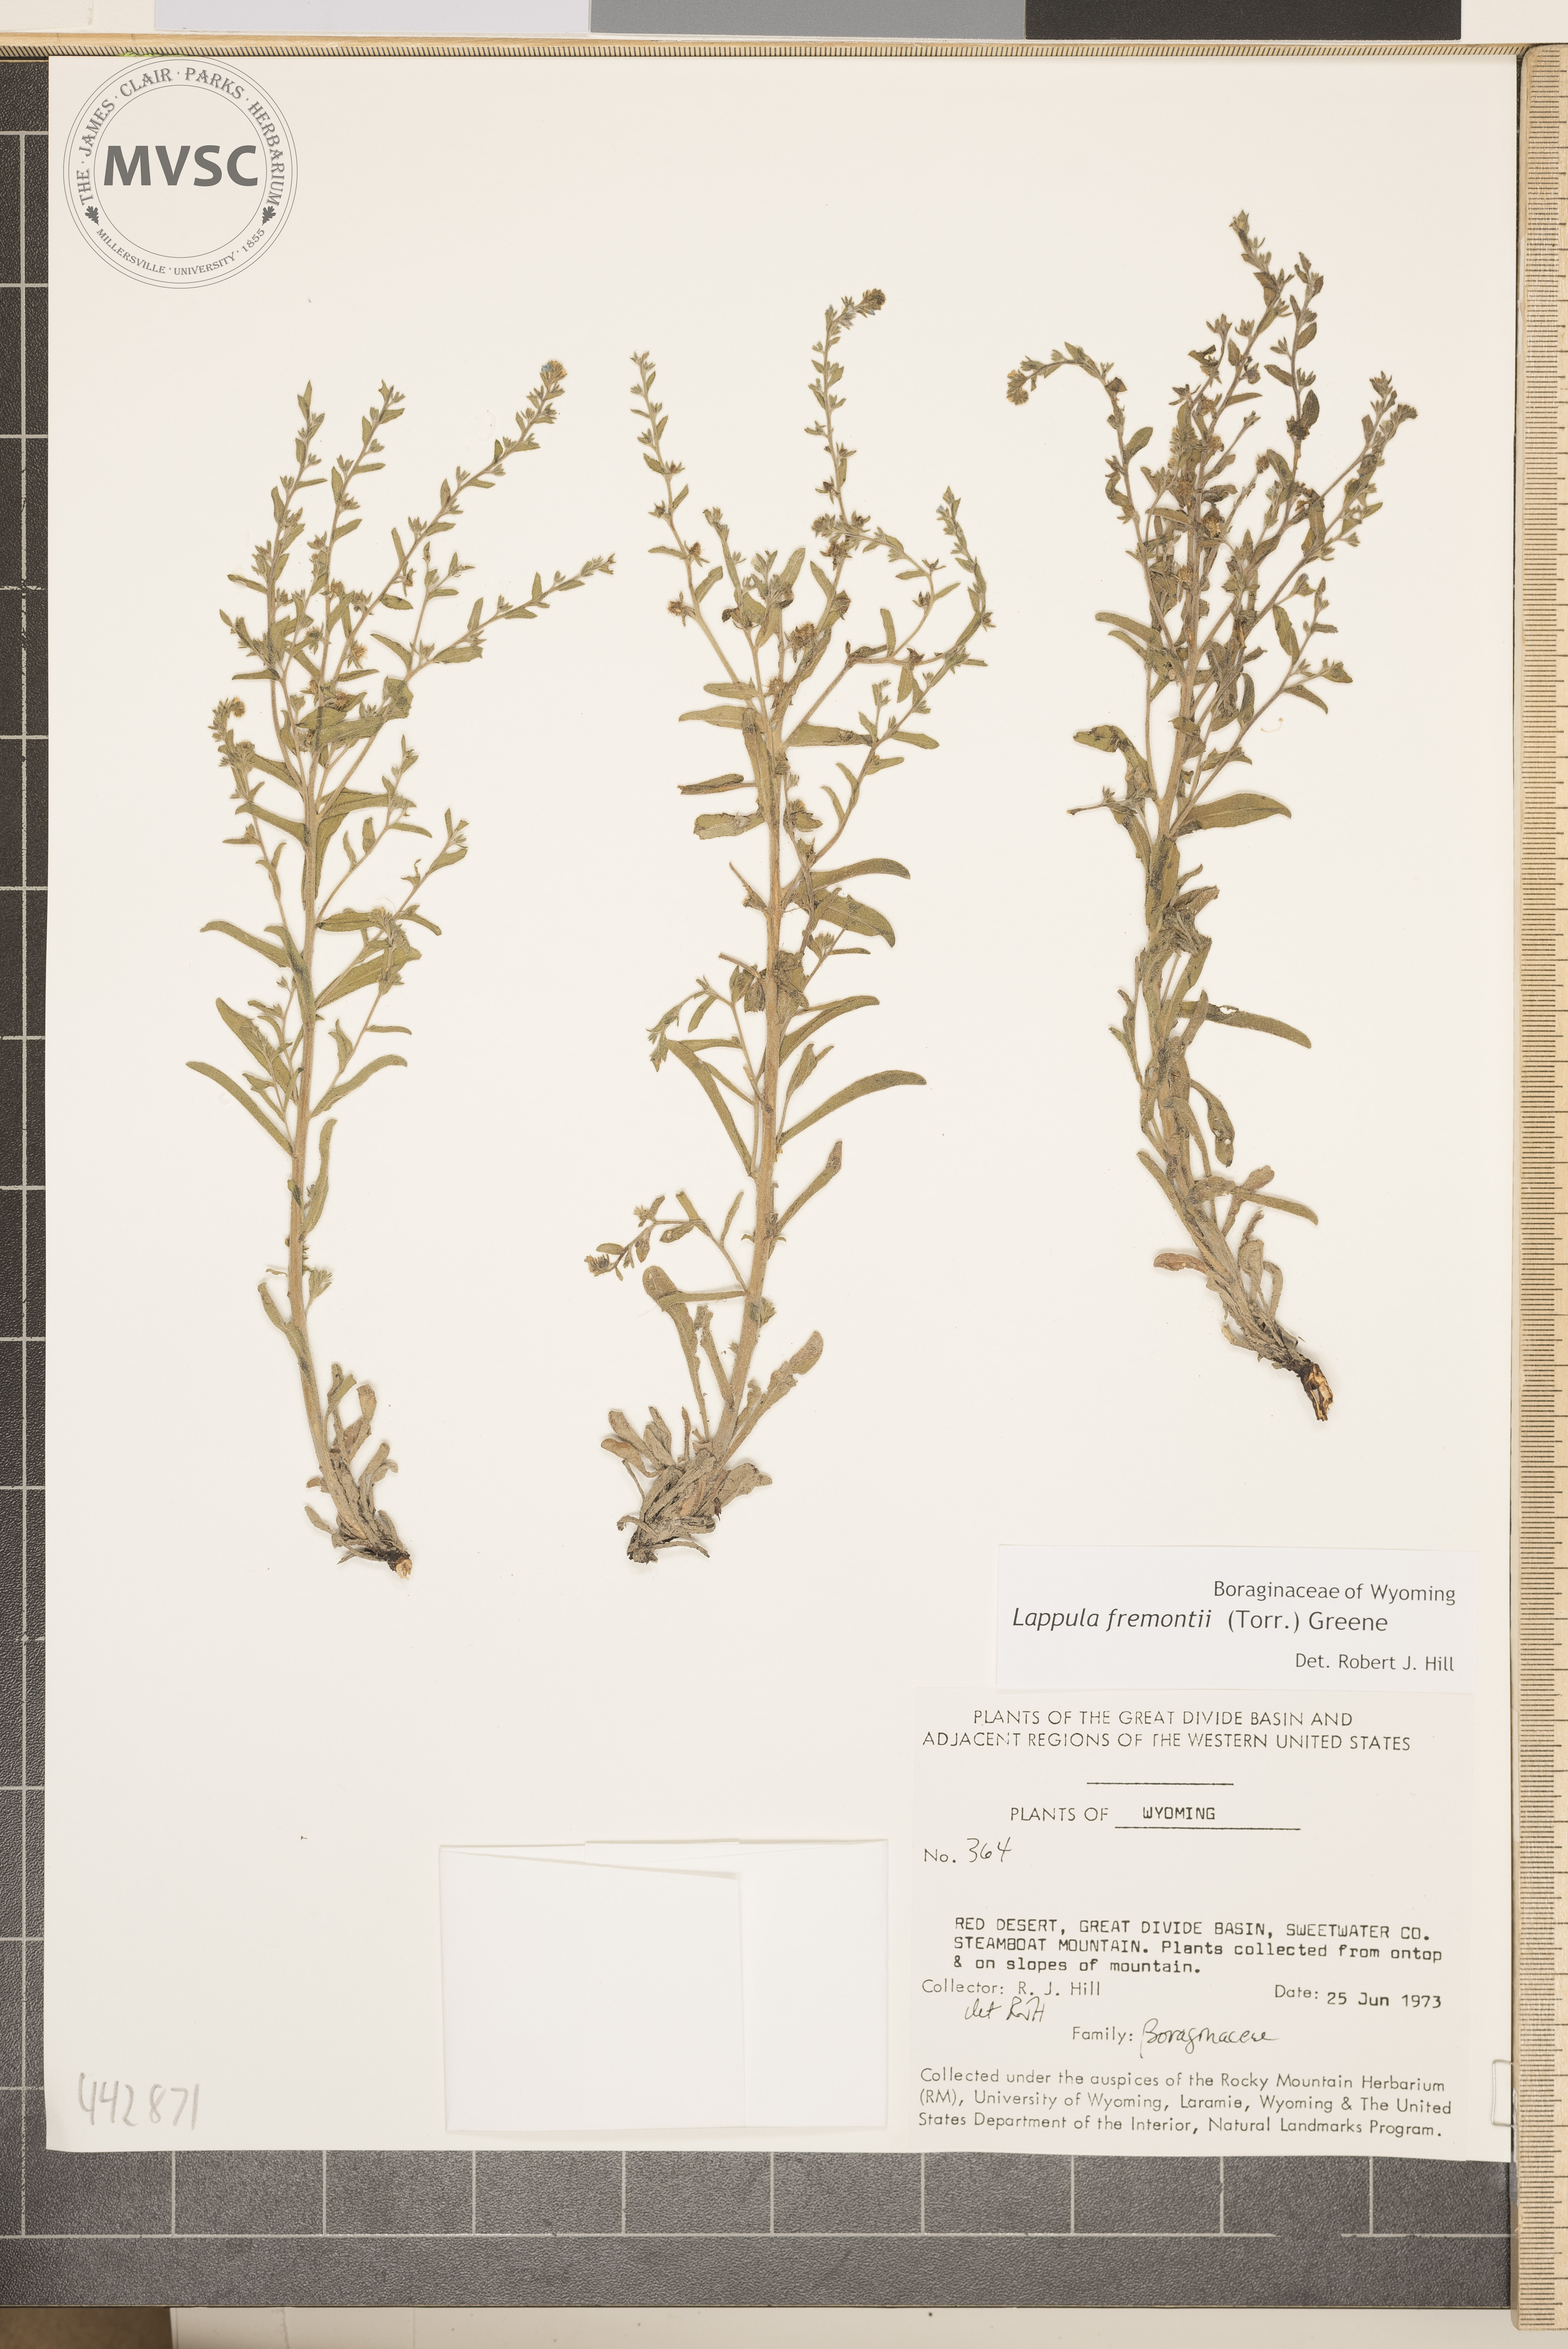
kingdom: Plantae
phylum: Tracheophyta
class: Magnoliopsida
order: Boraginales
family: Boraginaceae
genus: Lappula
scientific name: Lappula squarrosa
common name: European stickseed
